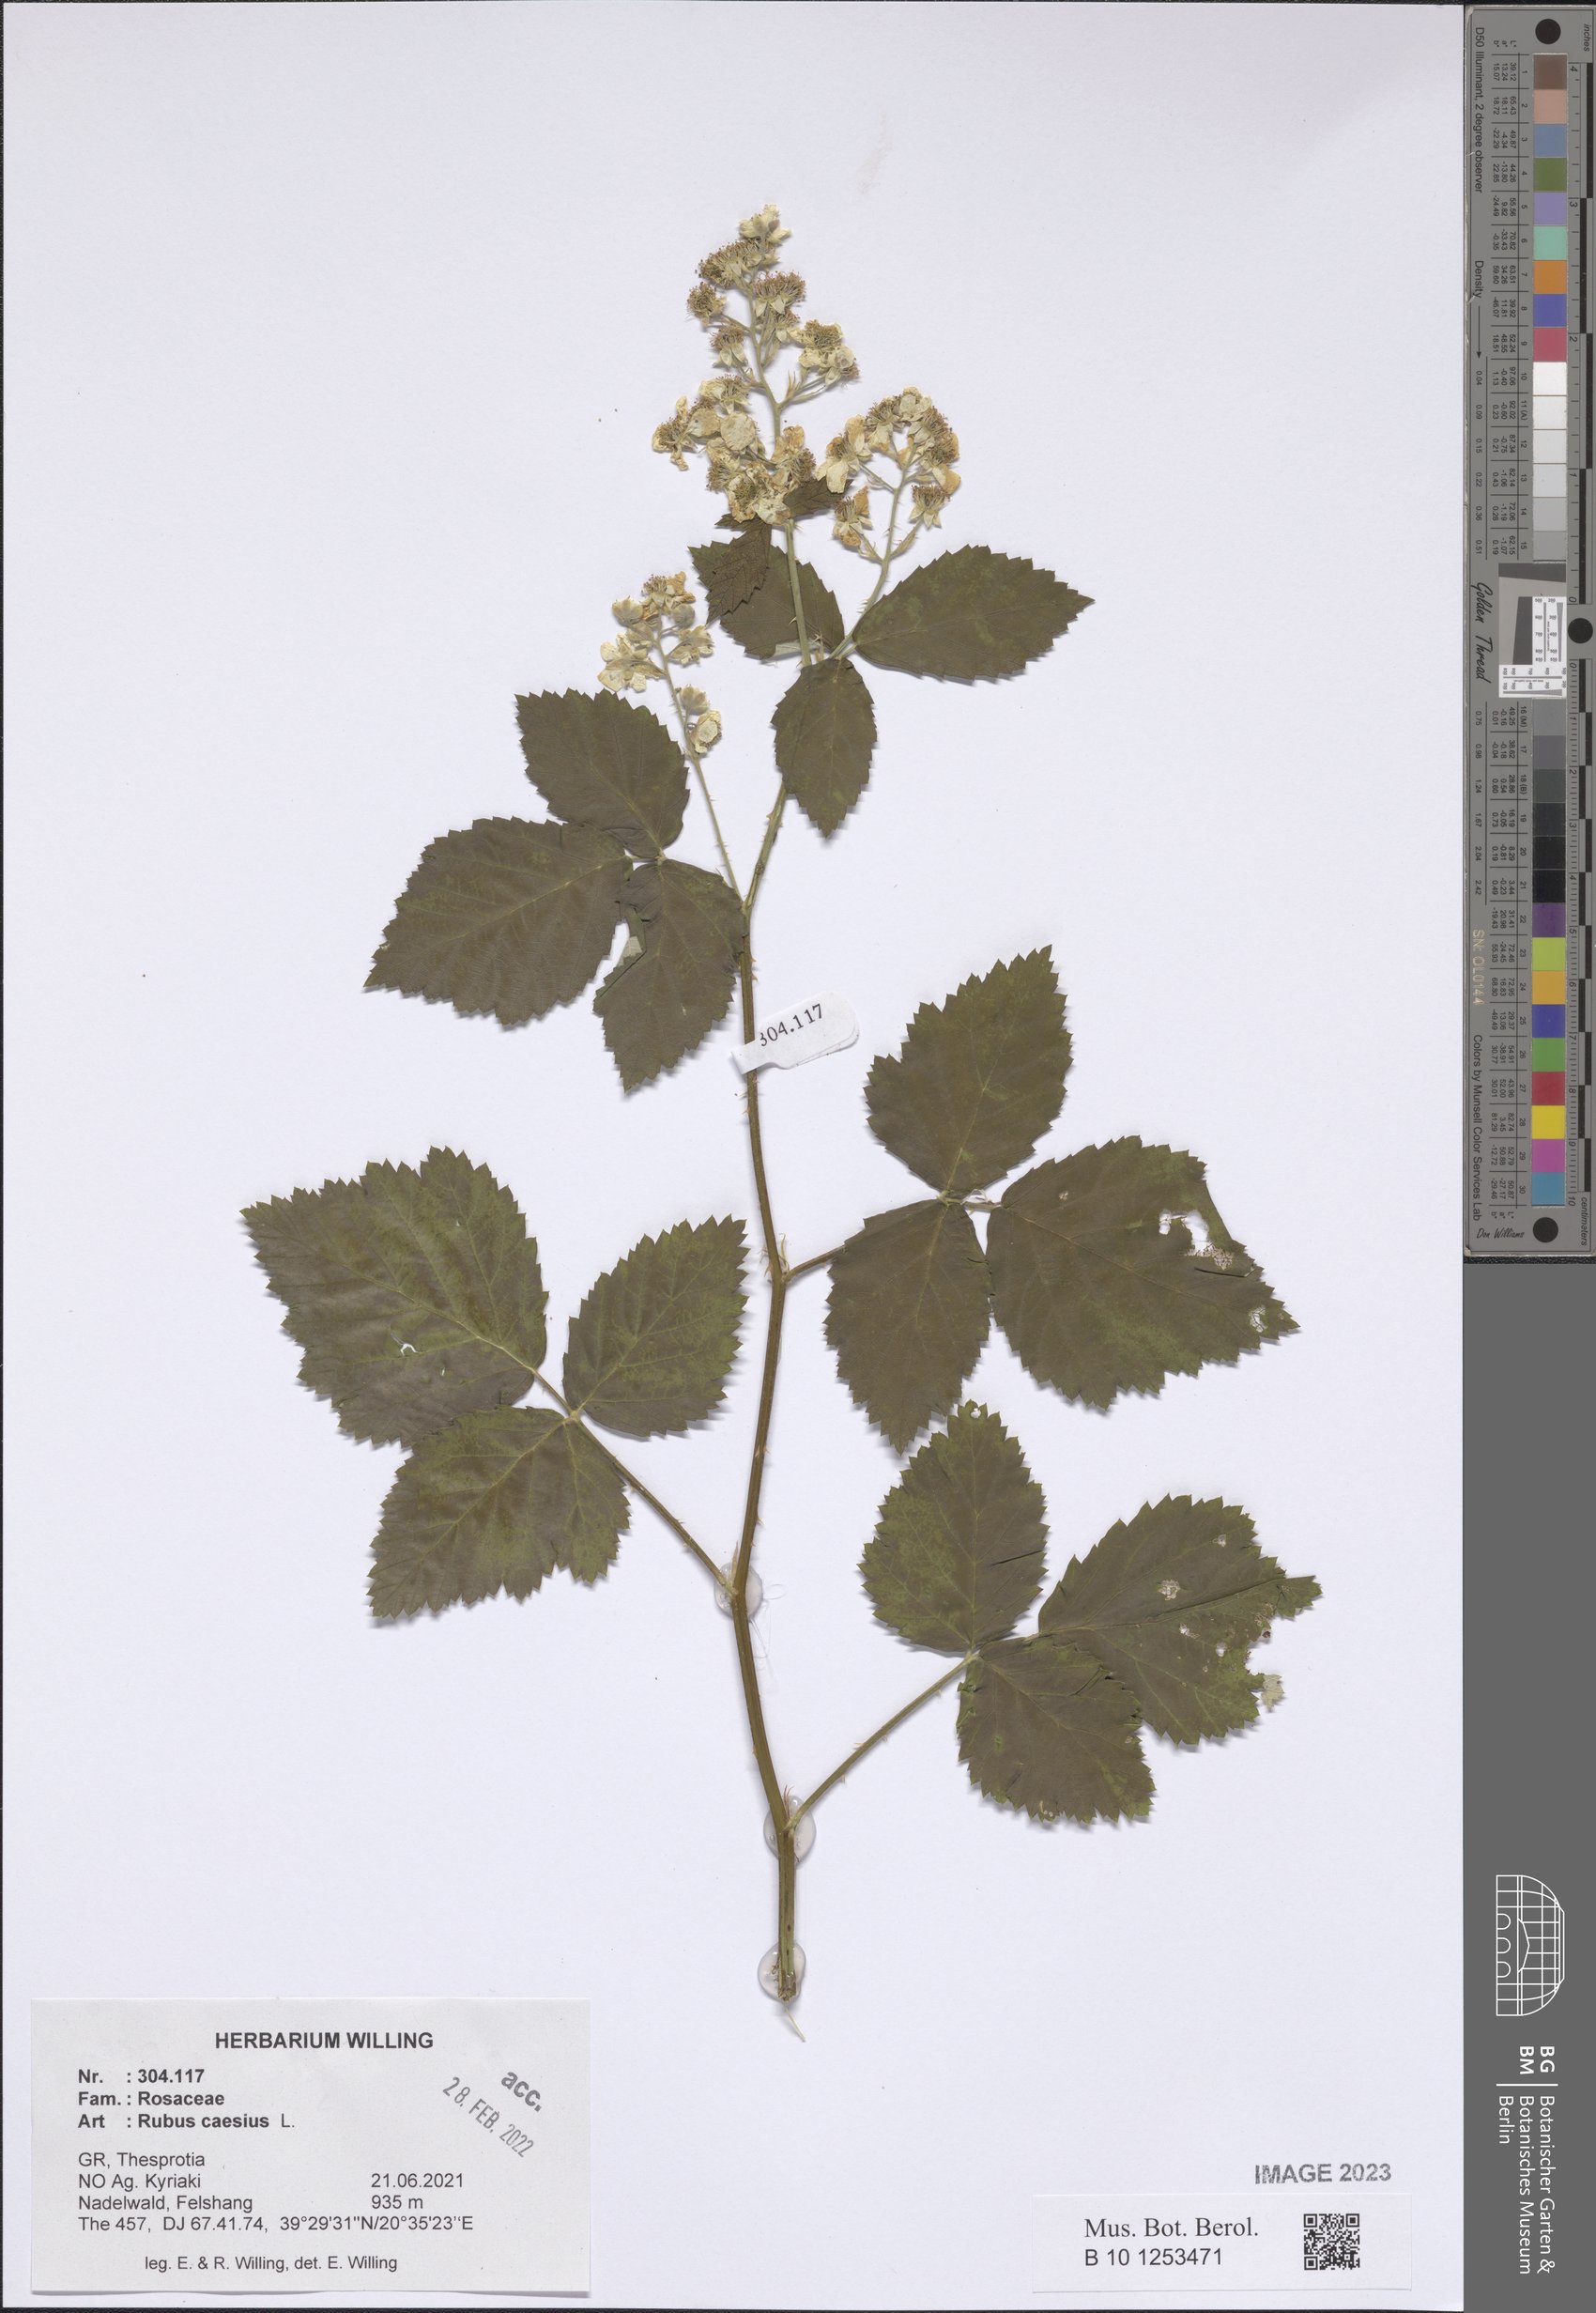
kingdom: Plantae
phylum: Tracheophyta
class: Magnoliopsida
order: Rosales
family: Rosaceae
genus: Rubus
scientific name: Rubus caesius
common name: Dewberry
